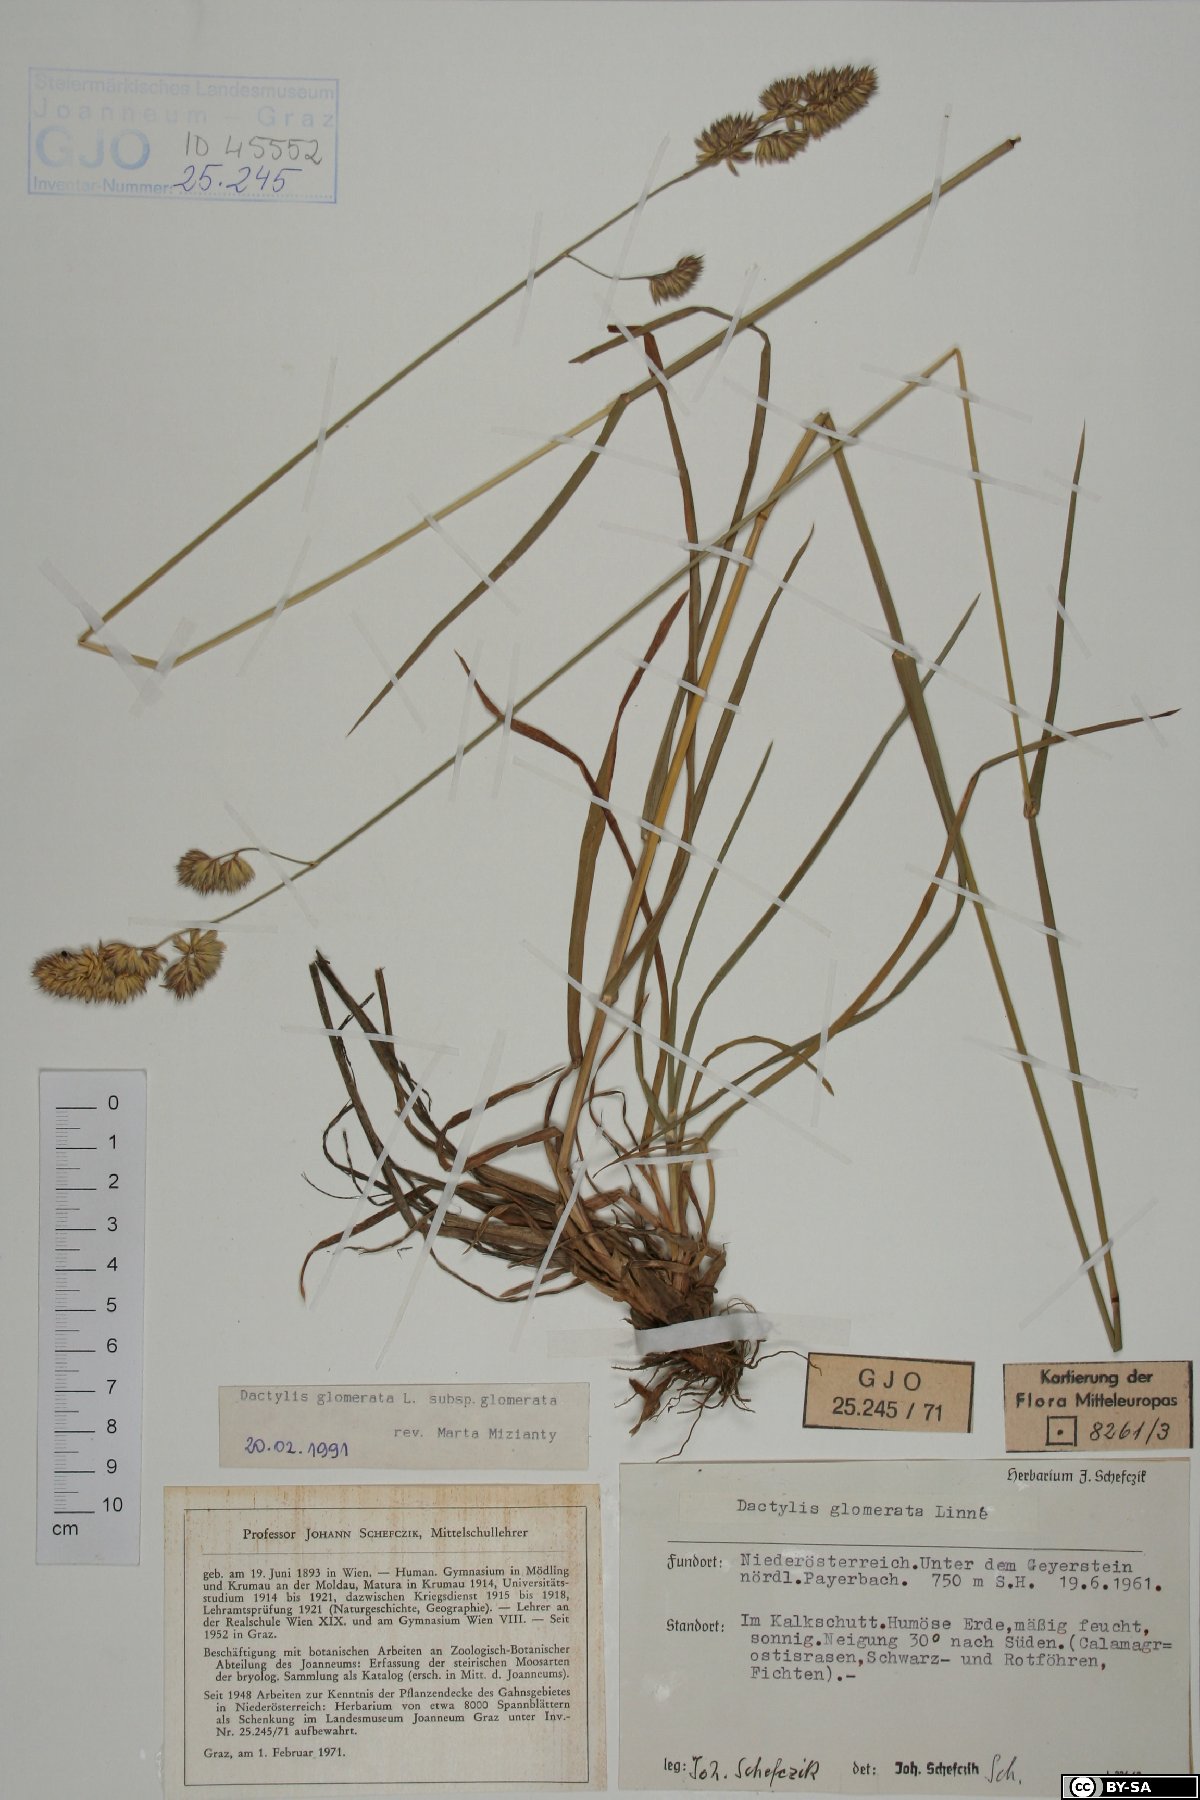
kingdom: Plantae
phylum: Tracheophyta
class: Liliopsida
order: Poales
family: Poaceae
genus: Dactylis
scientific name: Dactylis glomerata
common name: Orchardgrass
